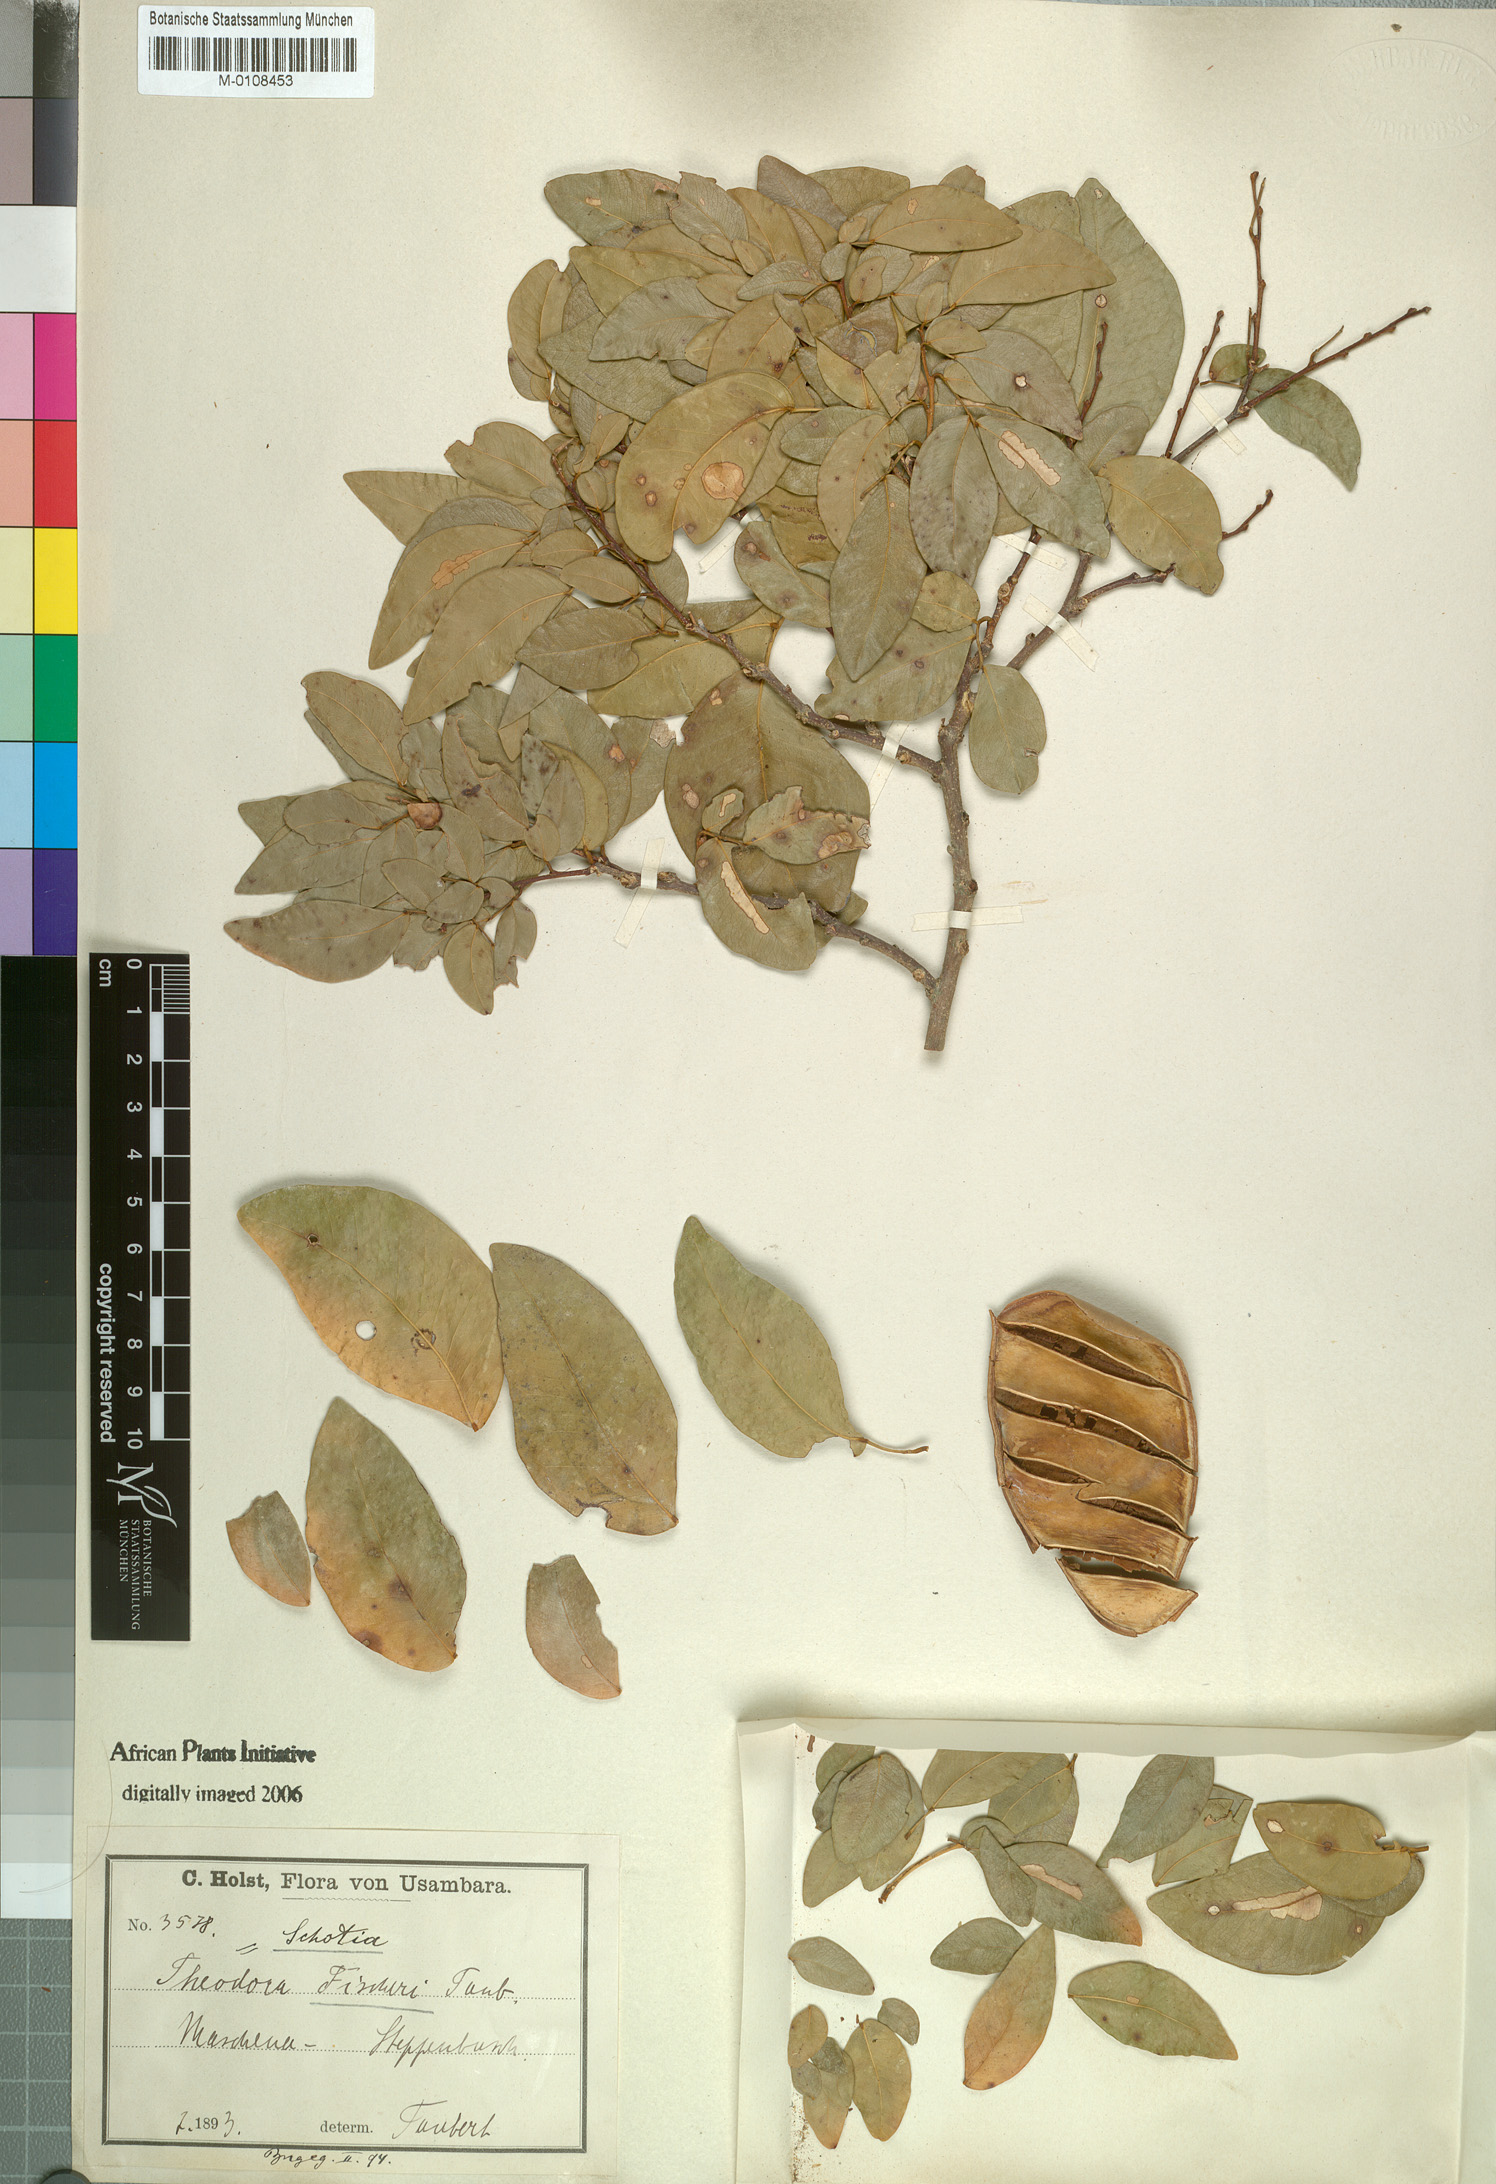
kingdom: Plantae
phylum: Tracheophyta
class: Magnoliopsida
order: Fabales
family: Fabaceae
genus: Scorodophloeus
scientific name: Scorodophloeus fischeri
